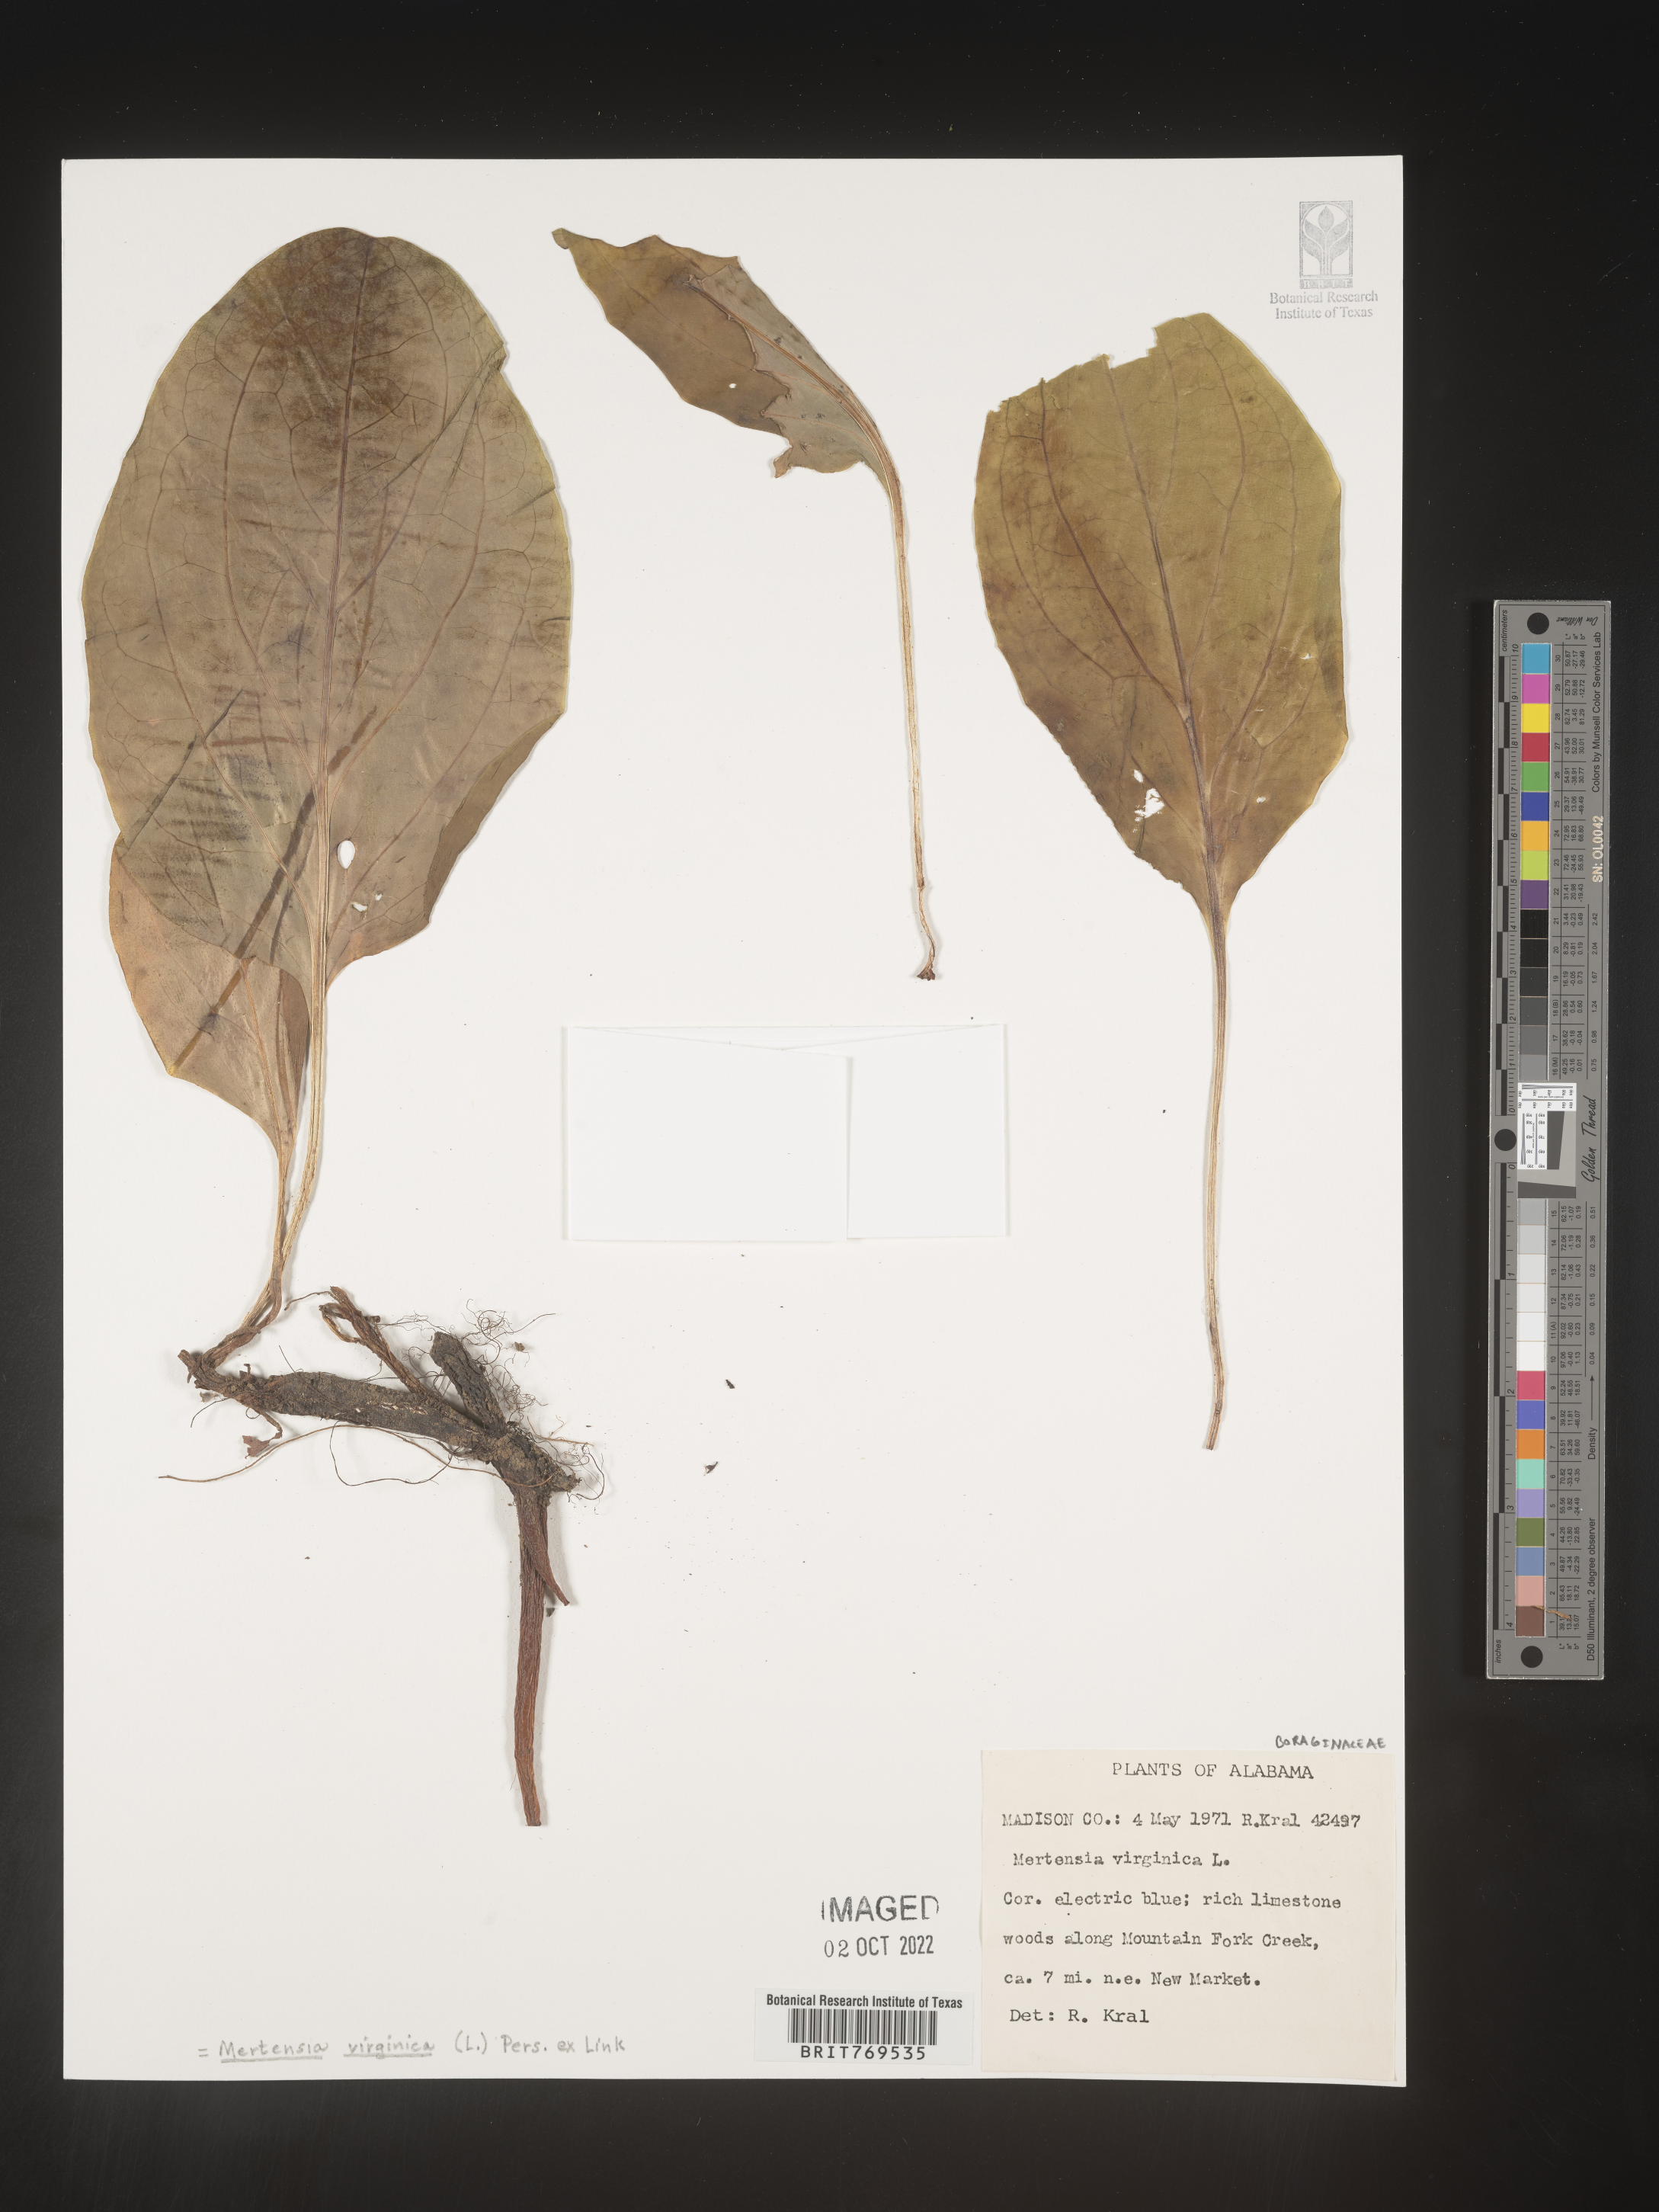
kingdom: Plantae
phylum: Tracheophyta
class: Magnoliopsida
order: Boraginales
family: Boraginaceae
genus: Mertensia
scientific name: Mertensia virginica
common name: Virginia bluebells
